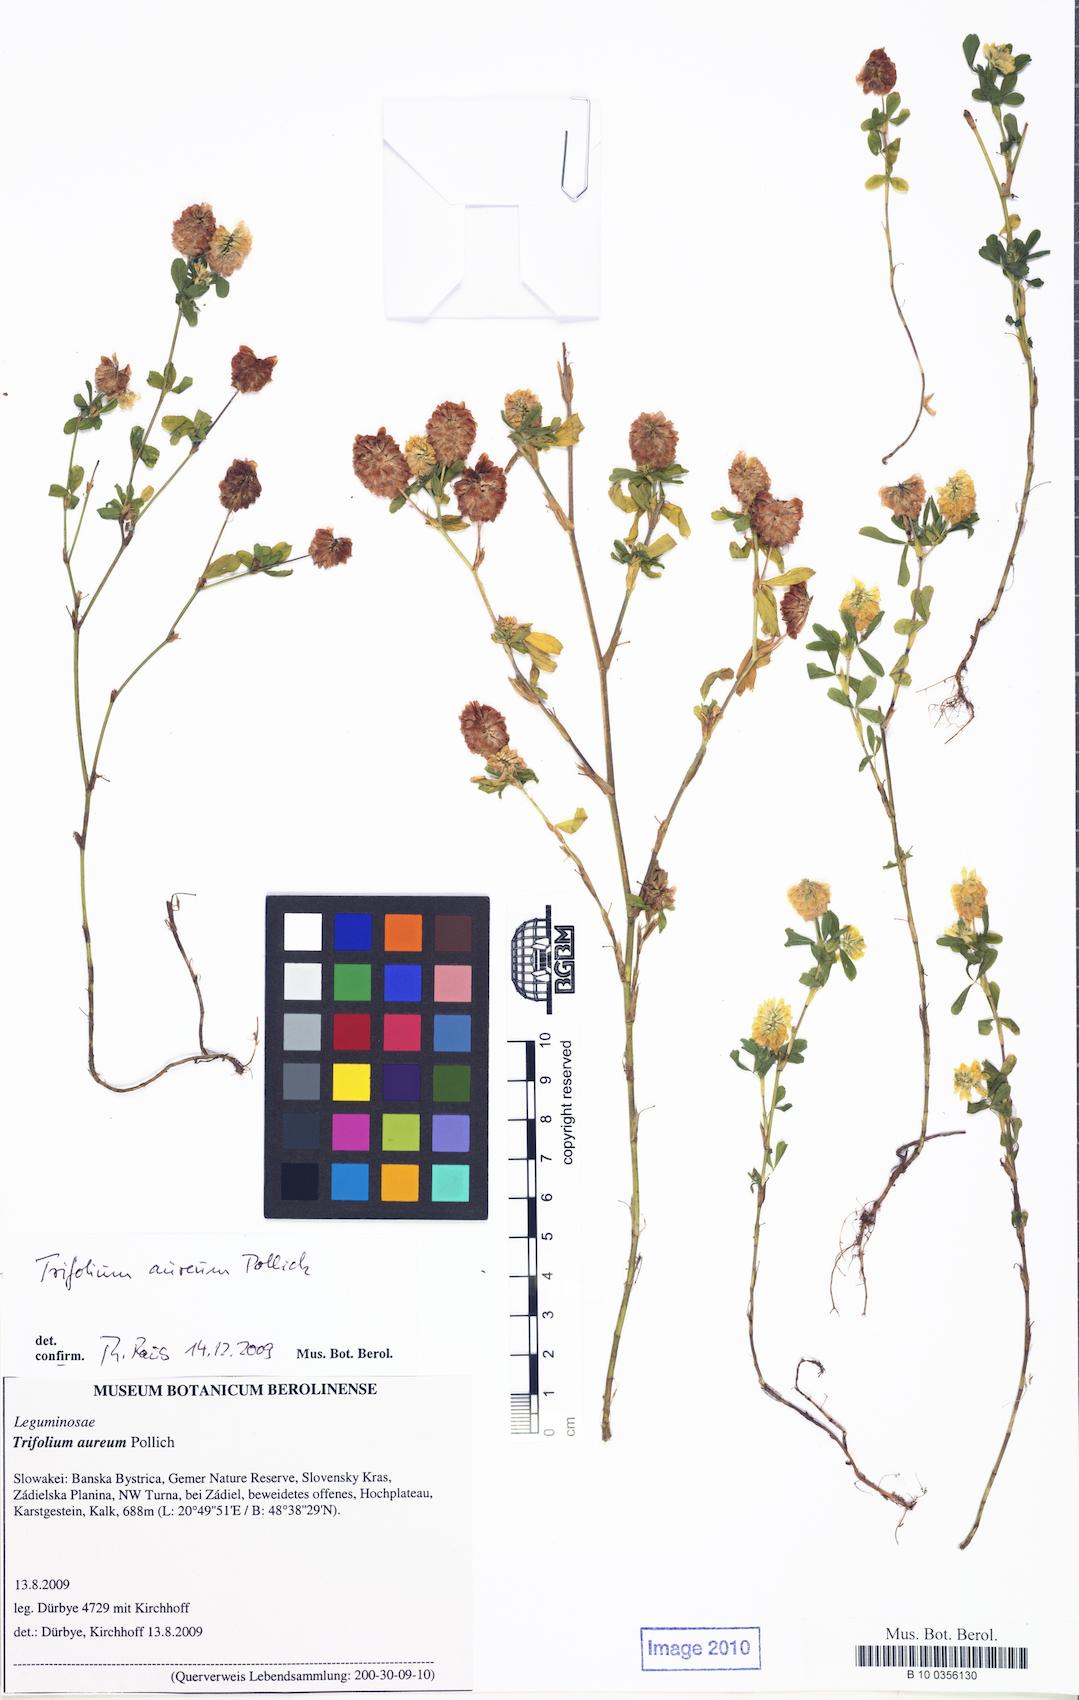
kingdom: Plantae
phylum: Tracheophyta
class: Magnoliopsida
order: Fabales
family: Fabaceae
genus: Trifolium
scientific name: Trifolium aureum
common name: Golden clover
